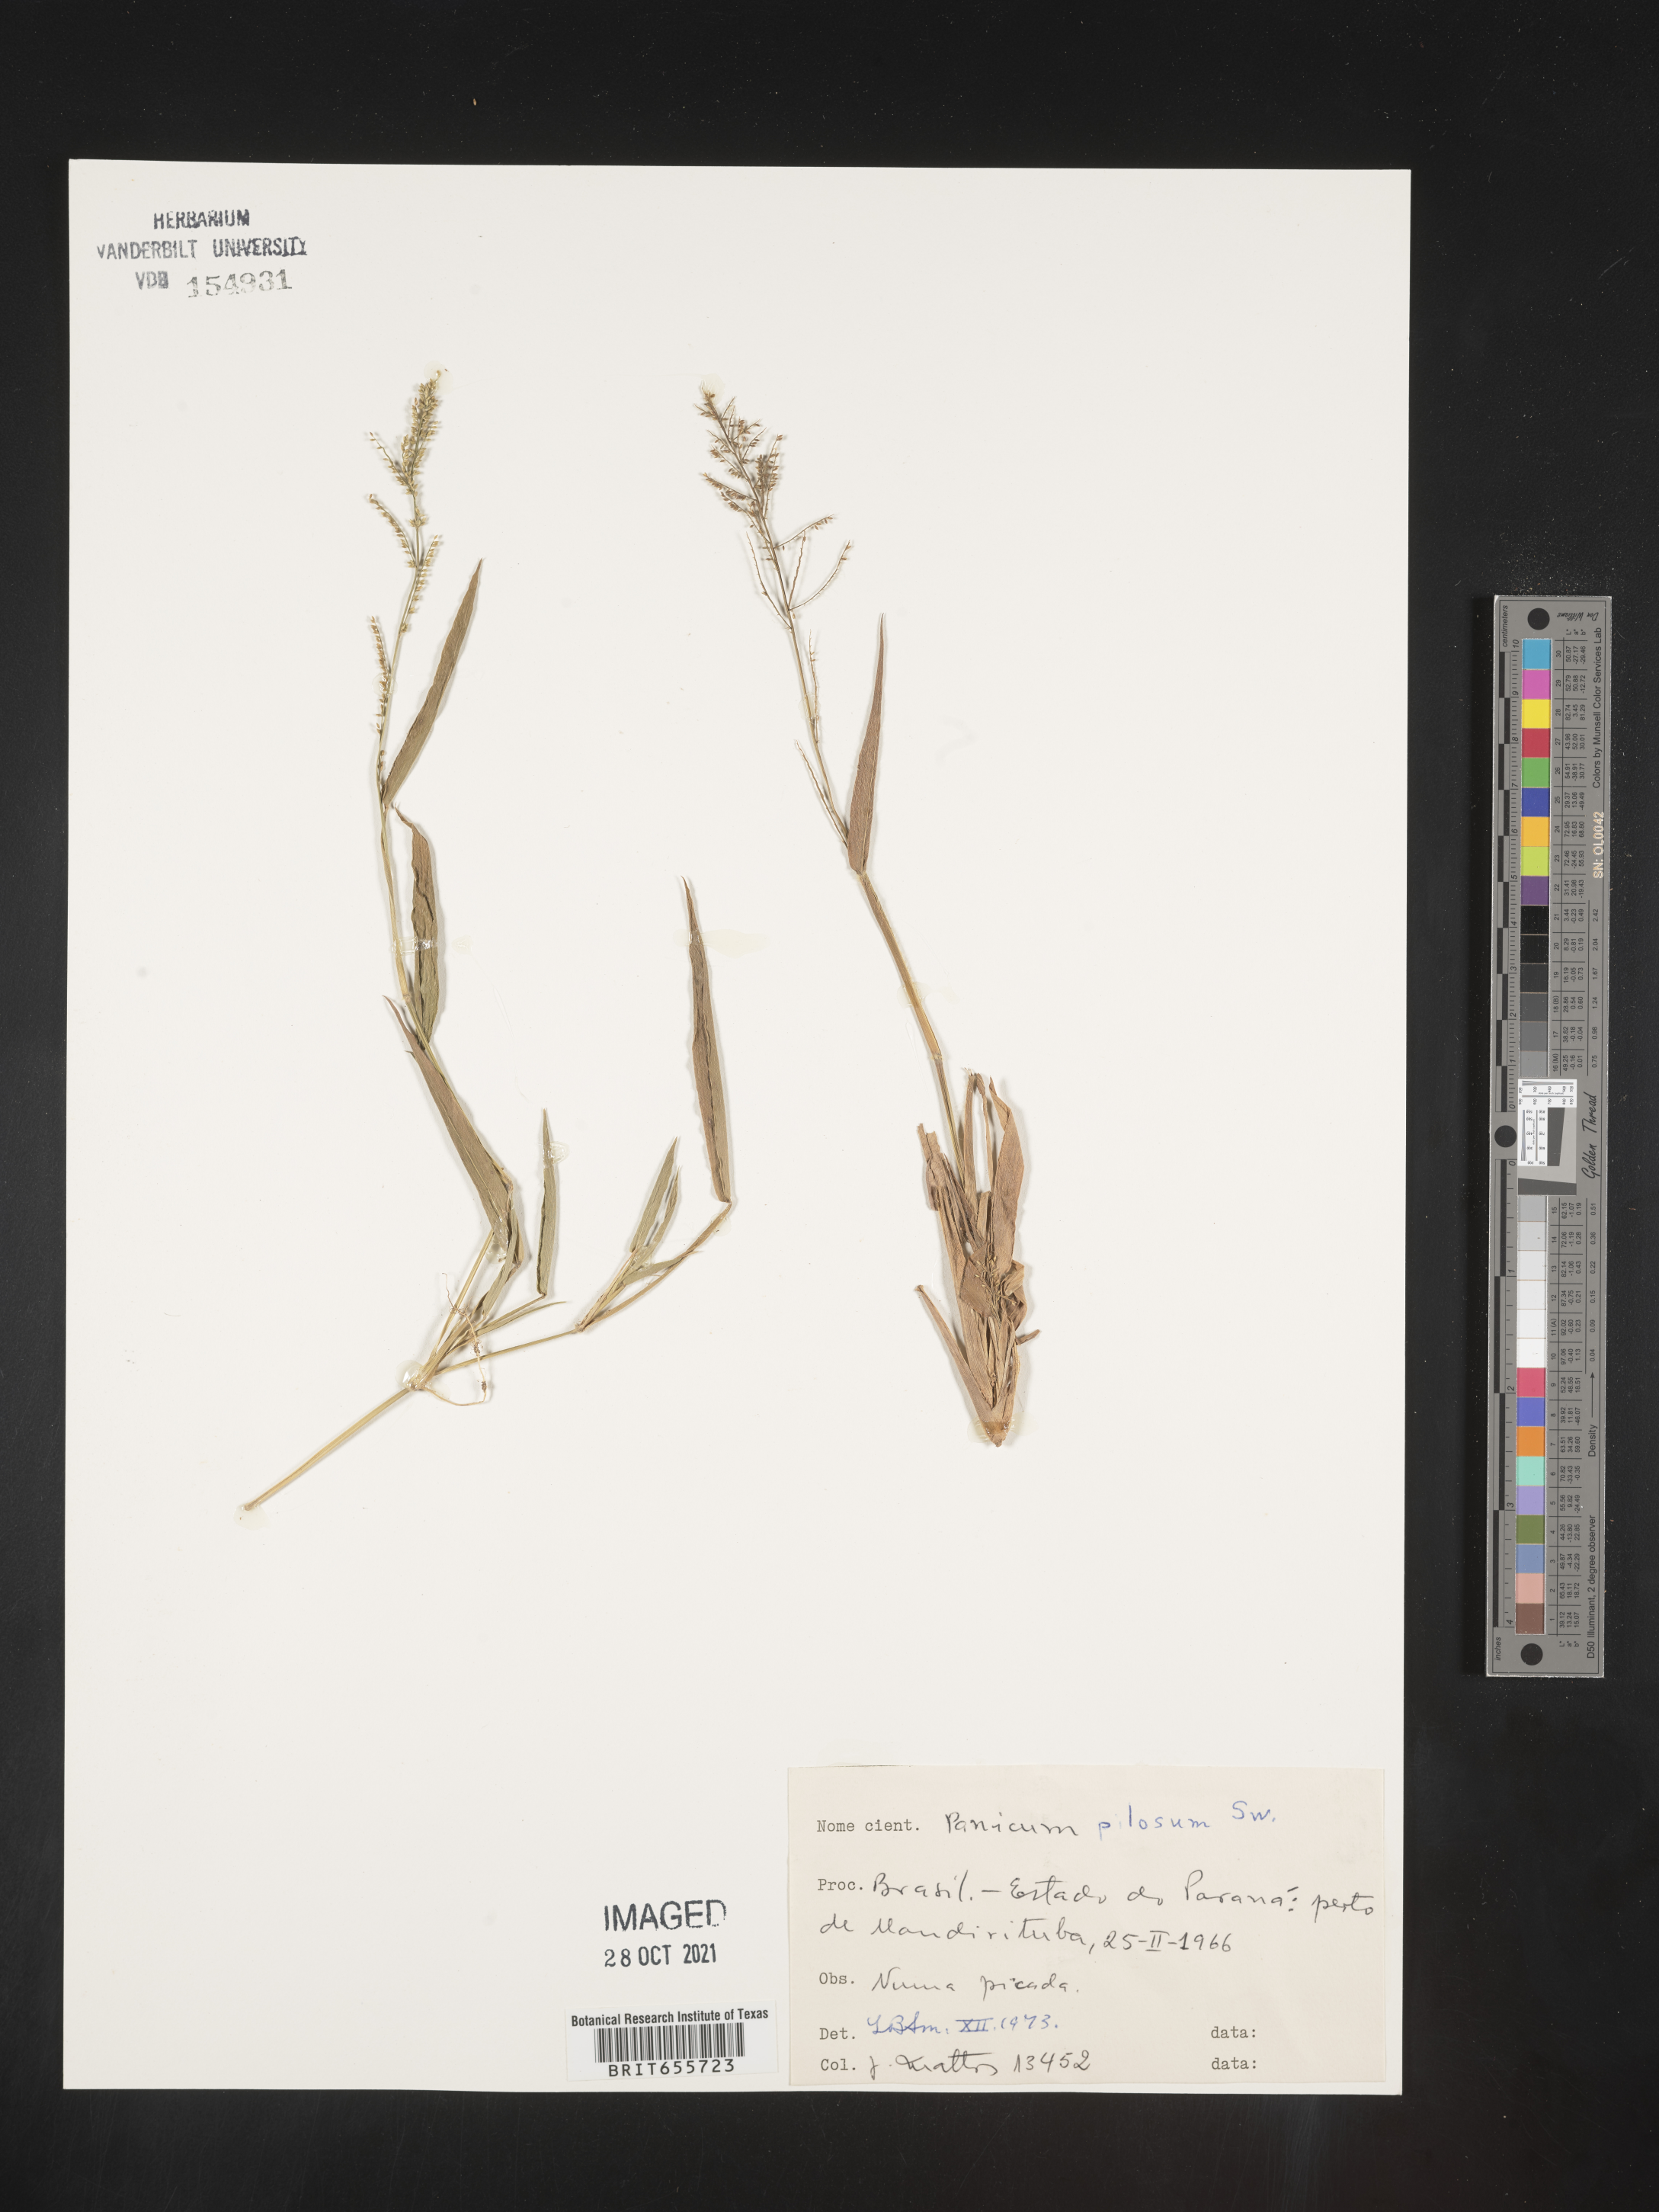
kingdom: Plantae
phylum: Tracheophyta
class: Liliopsida
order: Poales
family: Poaceae
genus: Panicum
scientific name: Panicum
